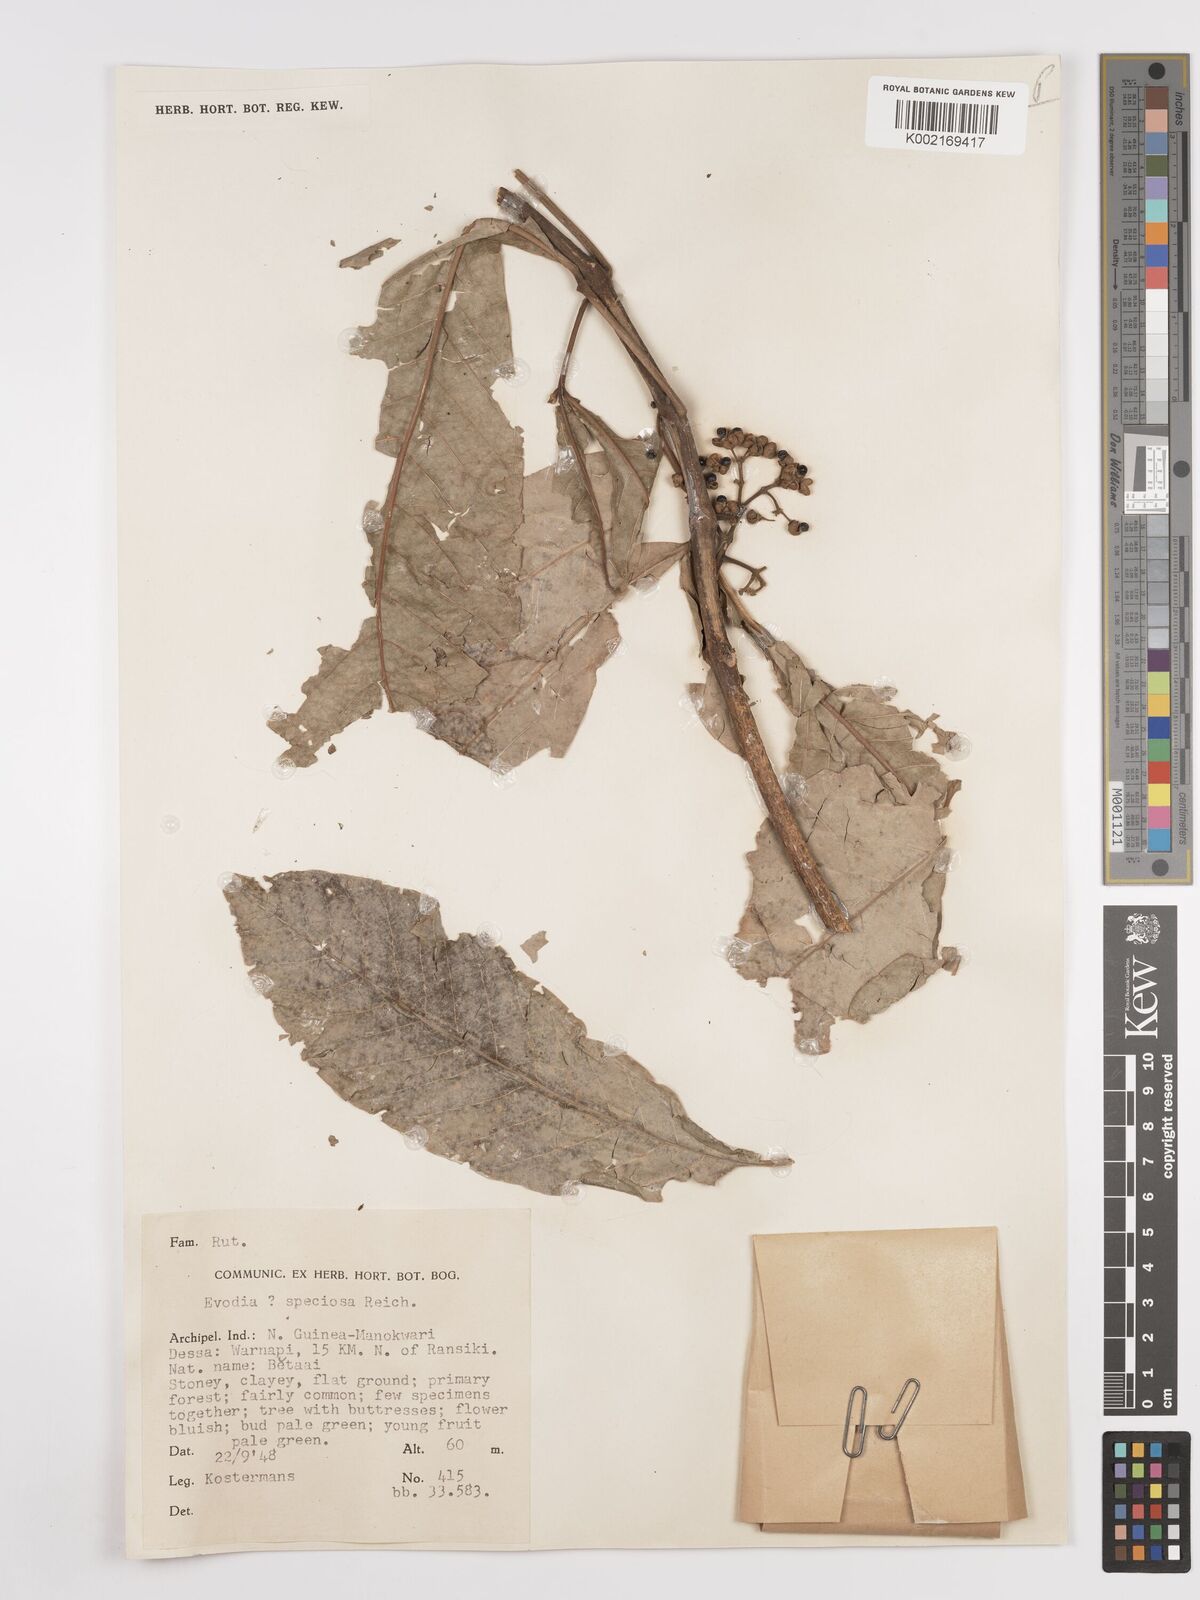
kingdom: Plantae
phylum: Tracheophyta
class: Magnoliopsida
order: Sapindales
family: Rutaceae
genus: Melicope
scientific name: Melicope bonwickii
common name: Yellow corkwood
